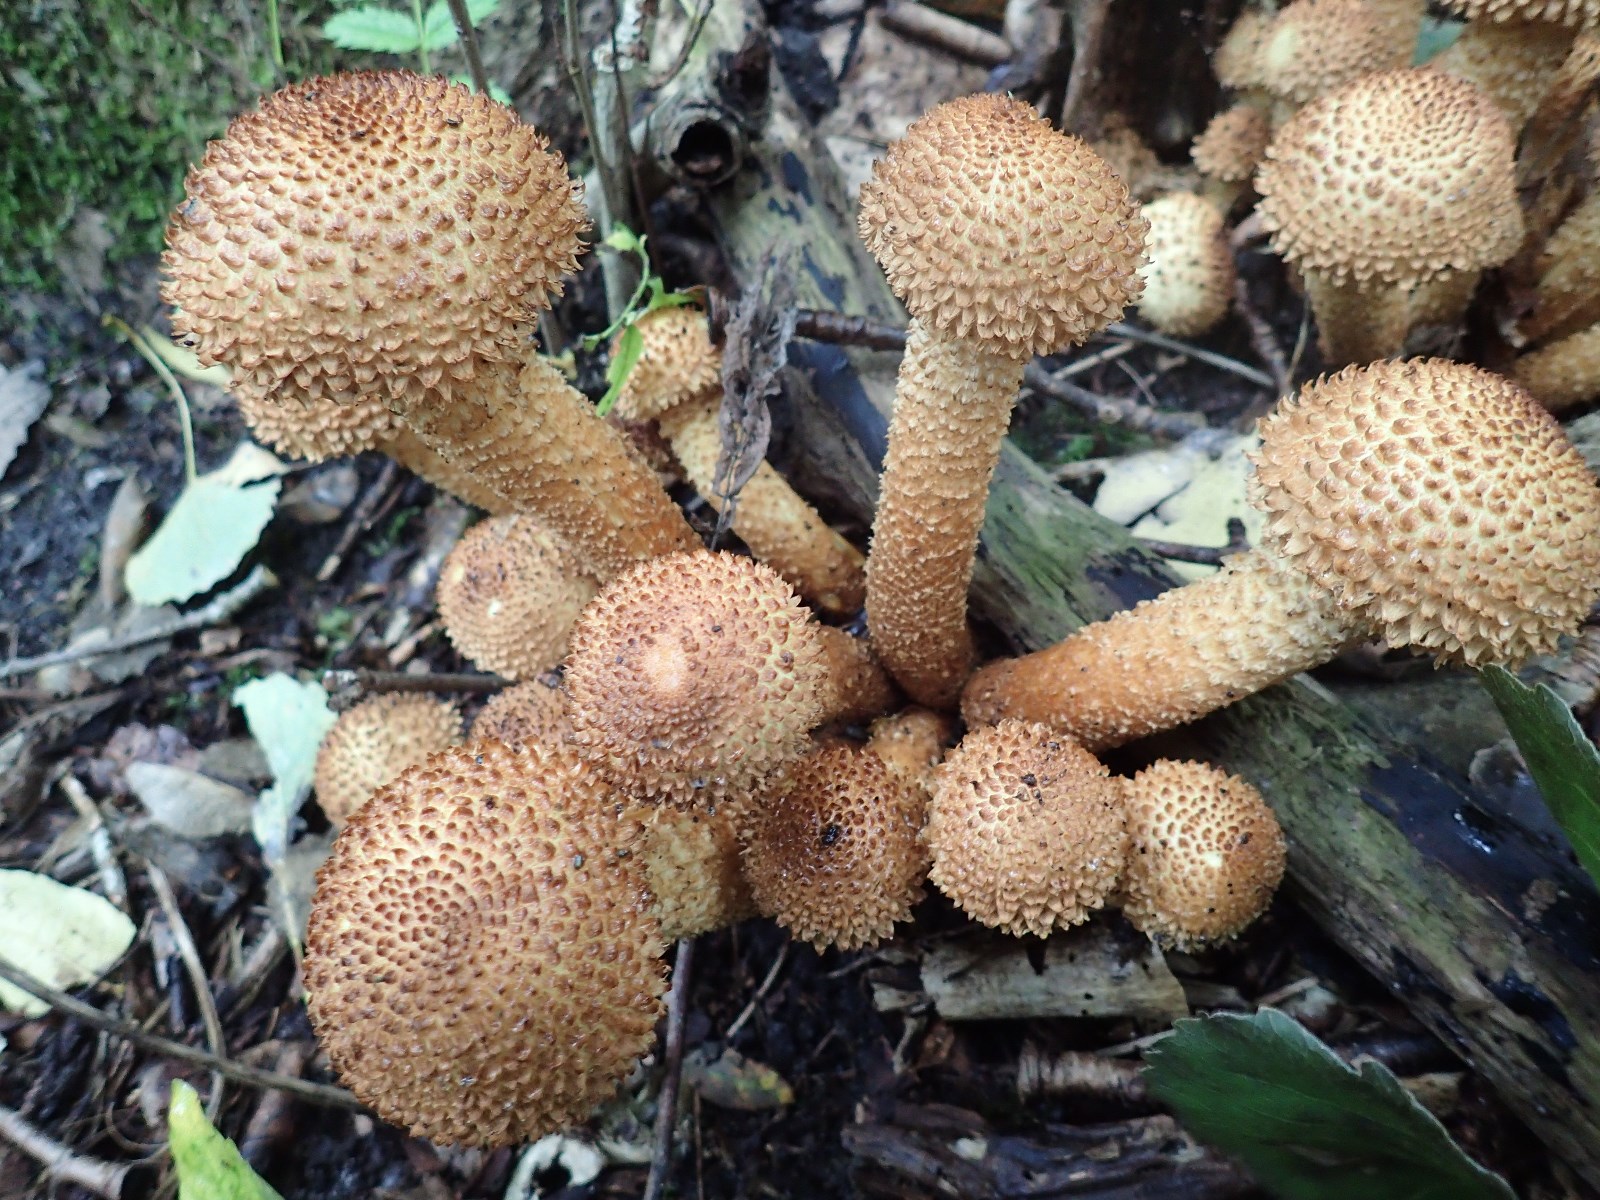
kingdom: Fungi
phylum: Basidiomycota
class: Agaricomycetes
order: Agaricales
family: Strophariaceae
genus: Pholiota
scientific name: Pholiota squarrosa
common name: krumskællet skælhat
